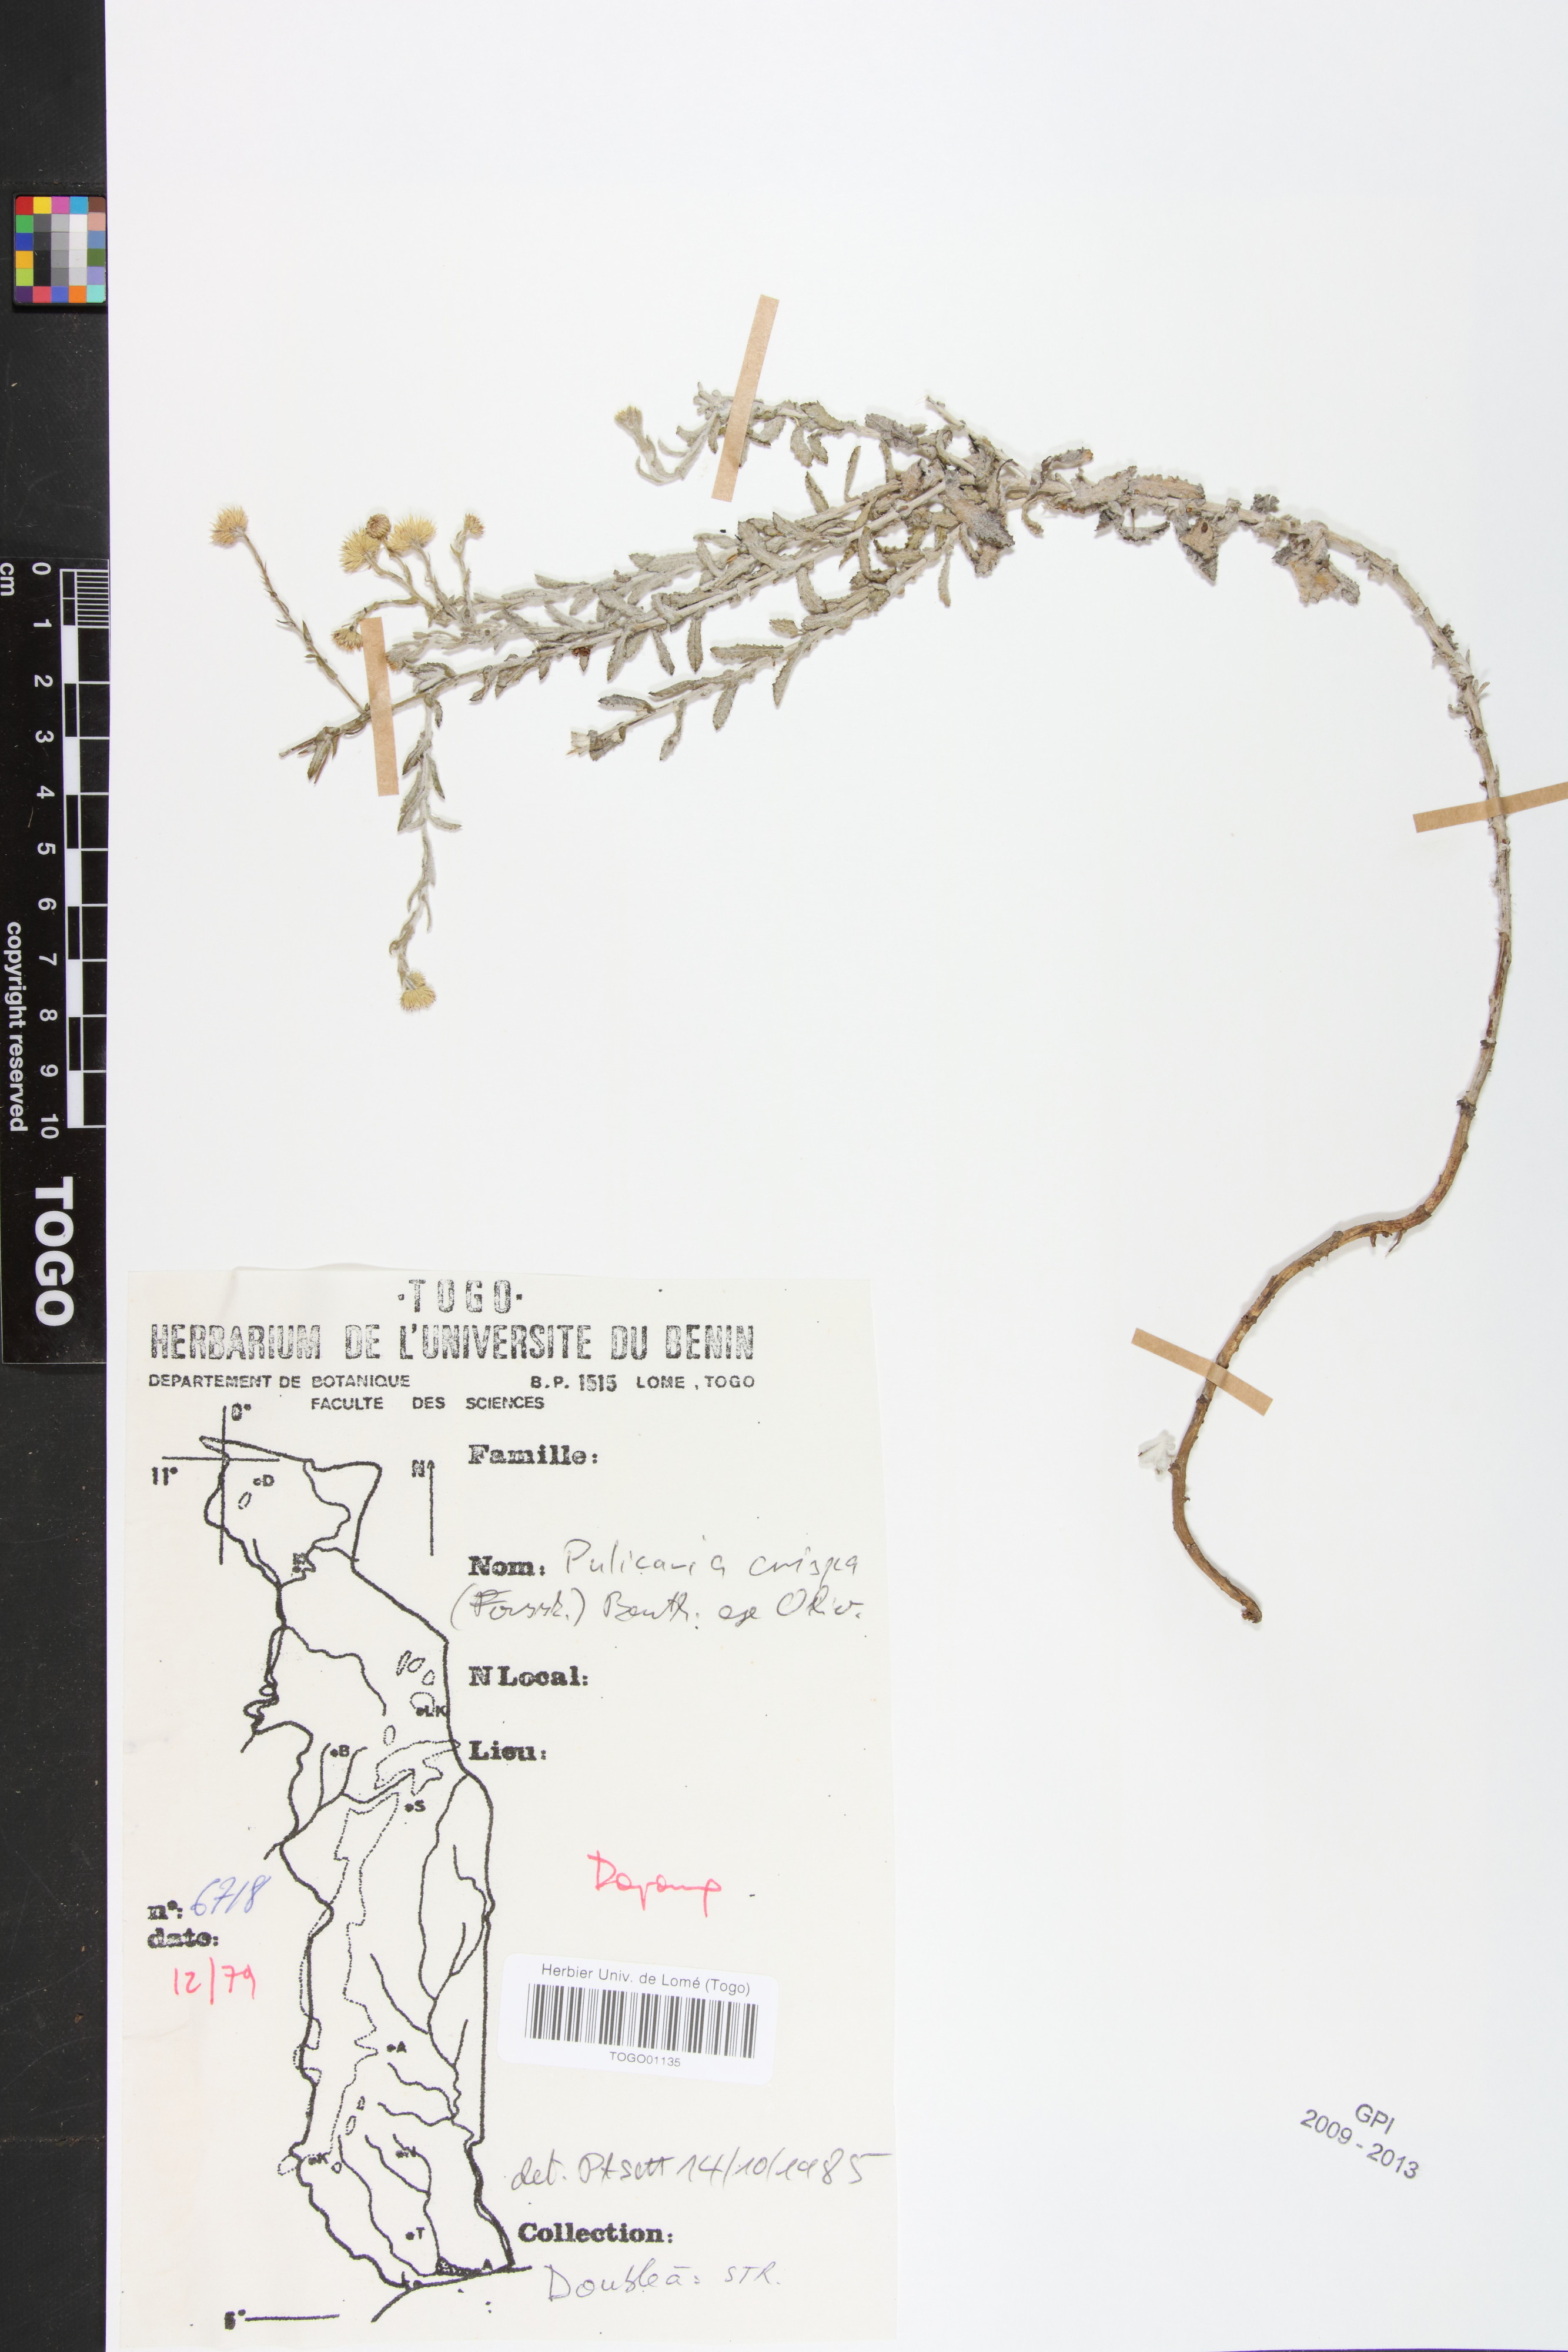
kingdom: Plantae
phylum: Tracheophyta
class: Magnoliopsida
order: Asterales
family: Asteraceae
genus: Pulicaria
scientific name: Pulicaria undulata
